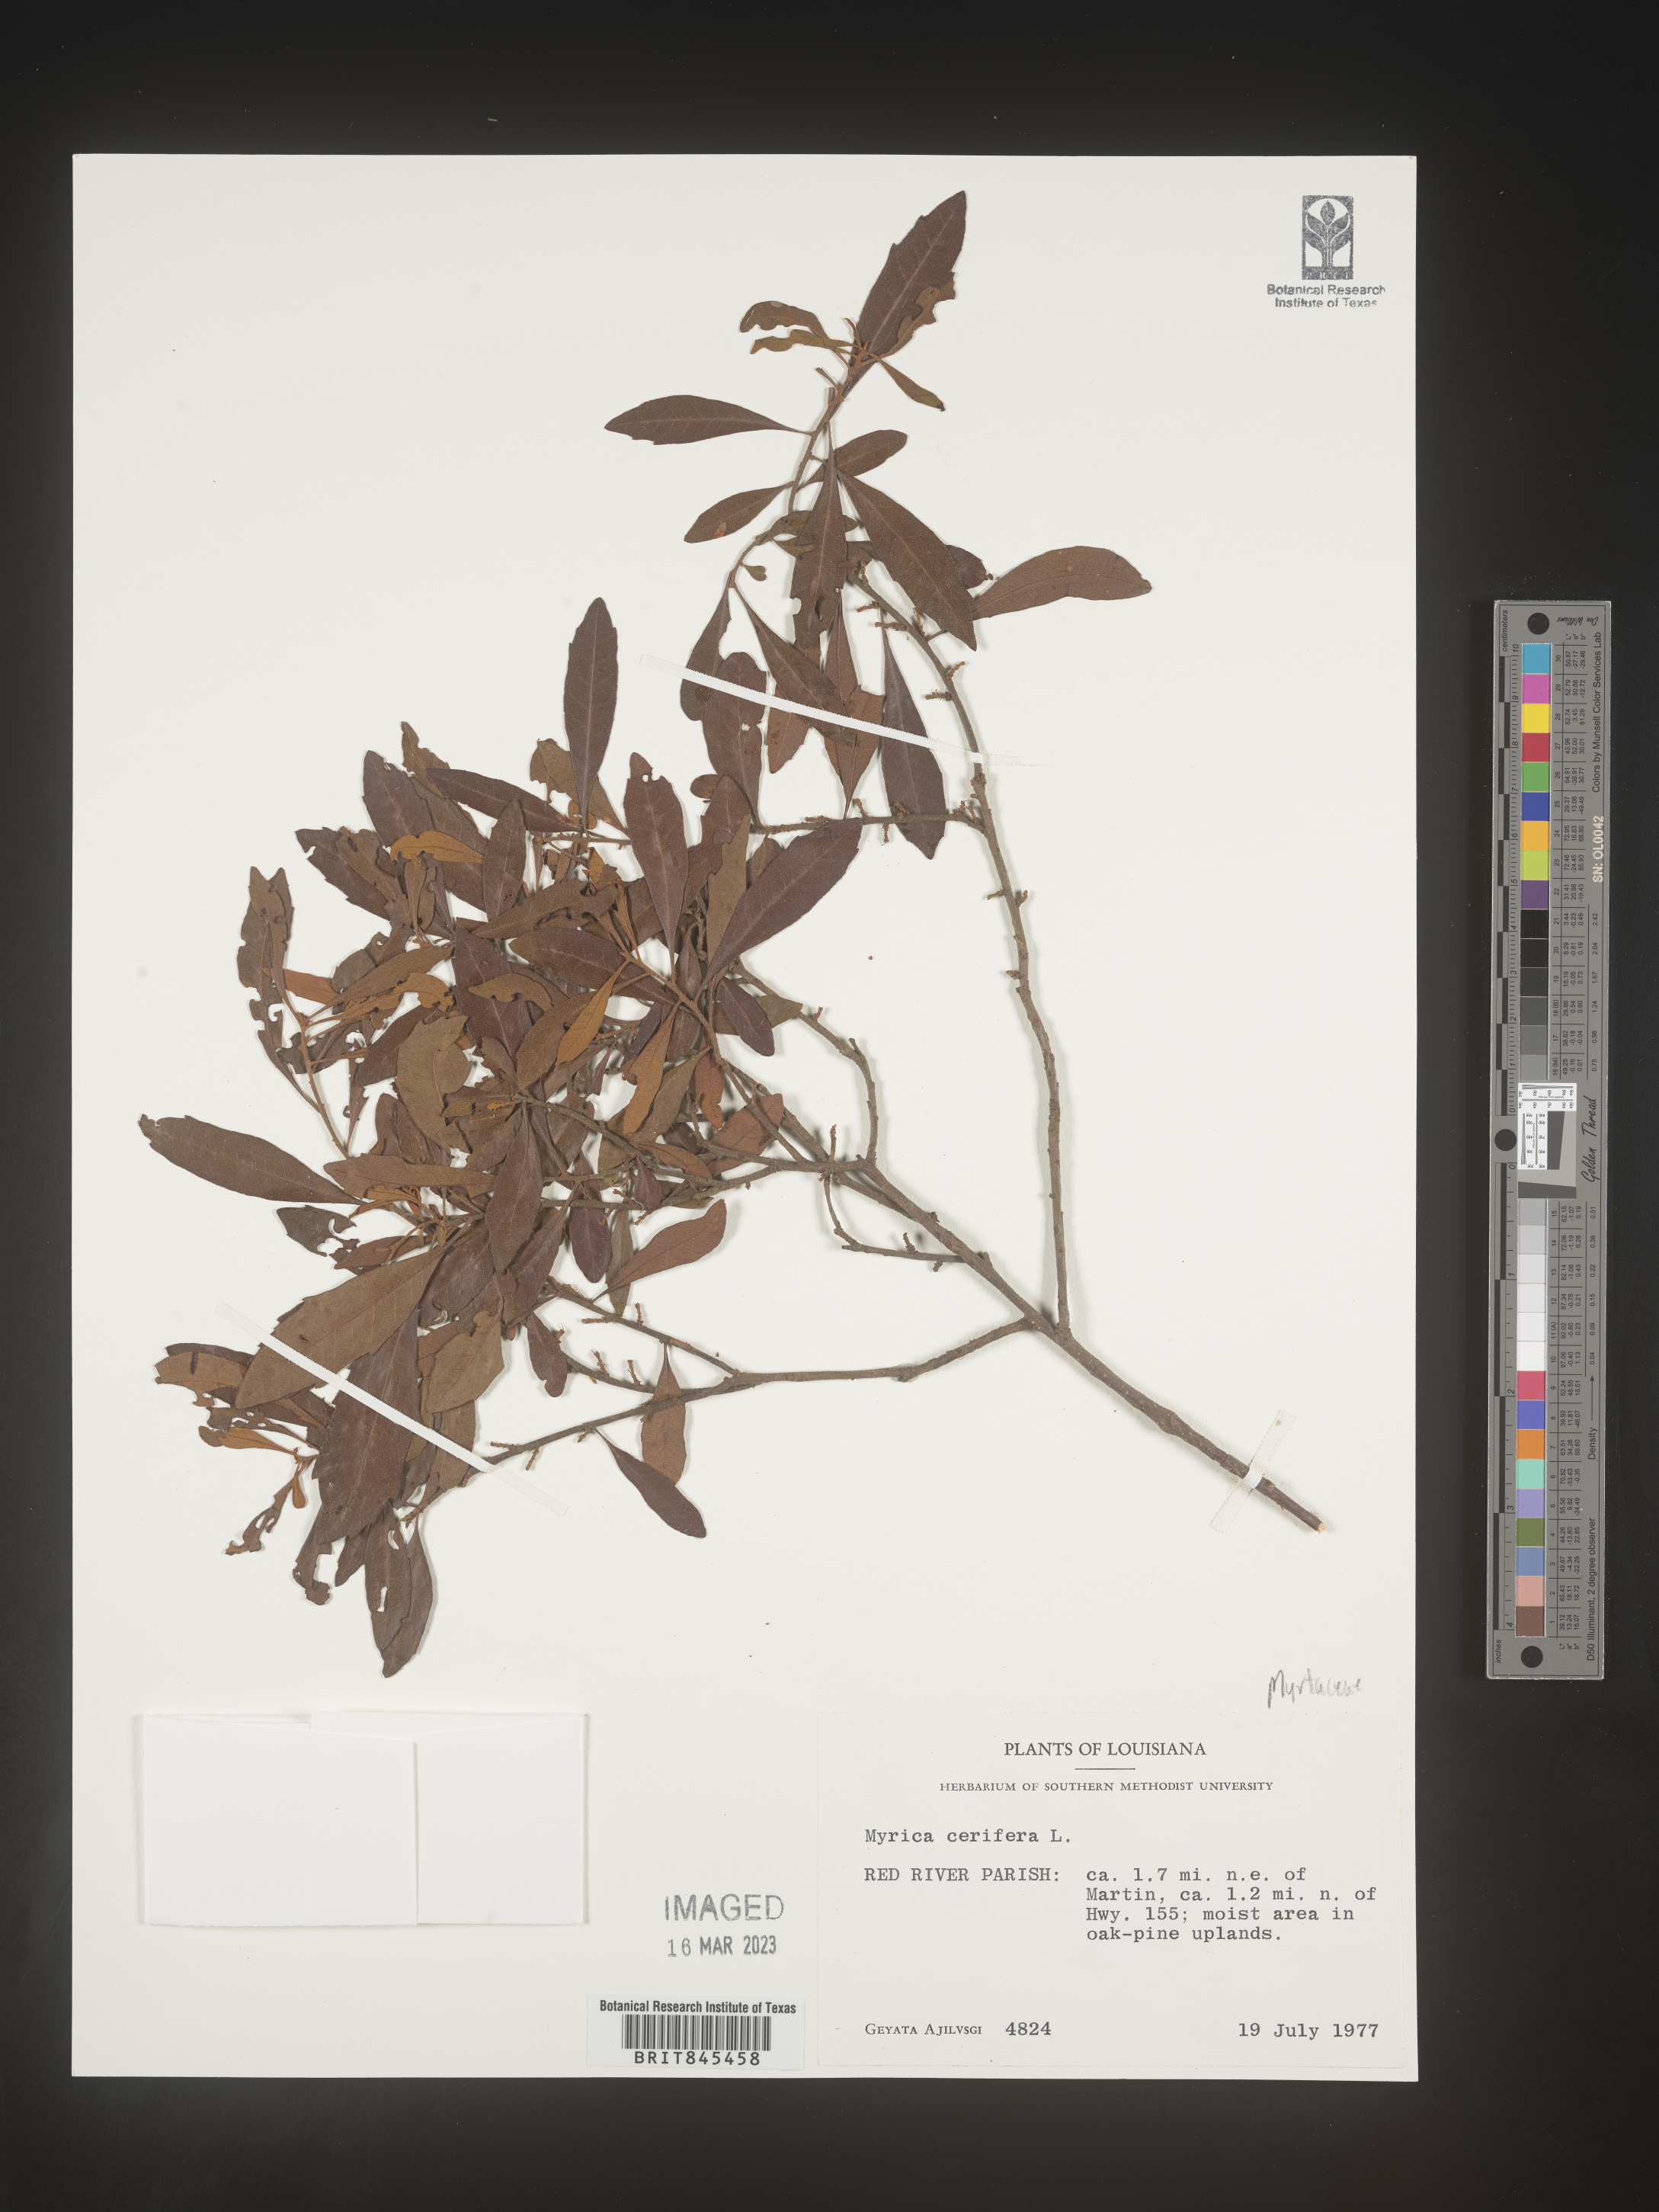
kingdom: Plantae
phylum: Tracheophyta
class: Magnoliopsida
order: Fagales
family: Myricaceae
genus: Morella
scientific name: Morella cerifera
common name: Wax myrtle
